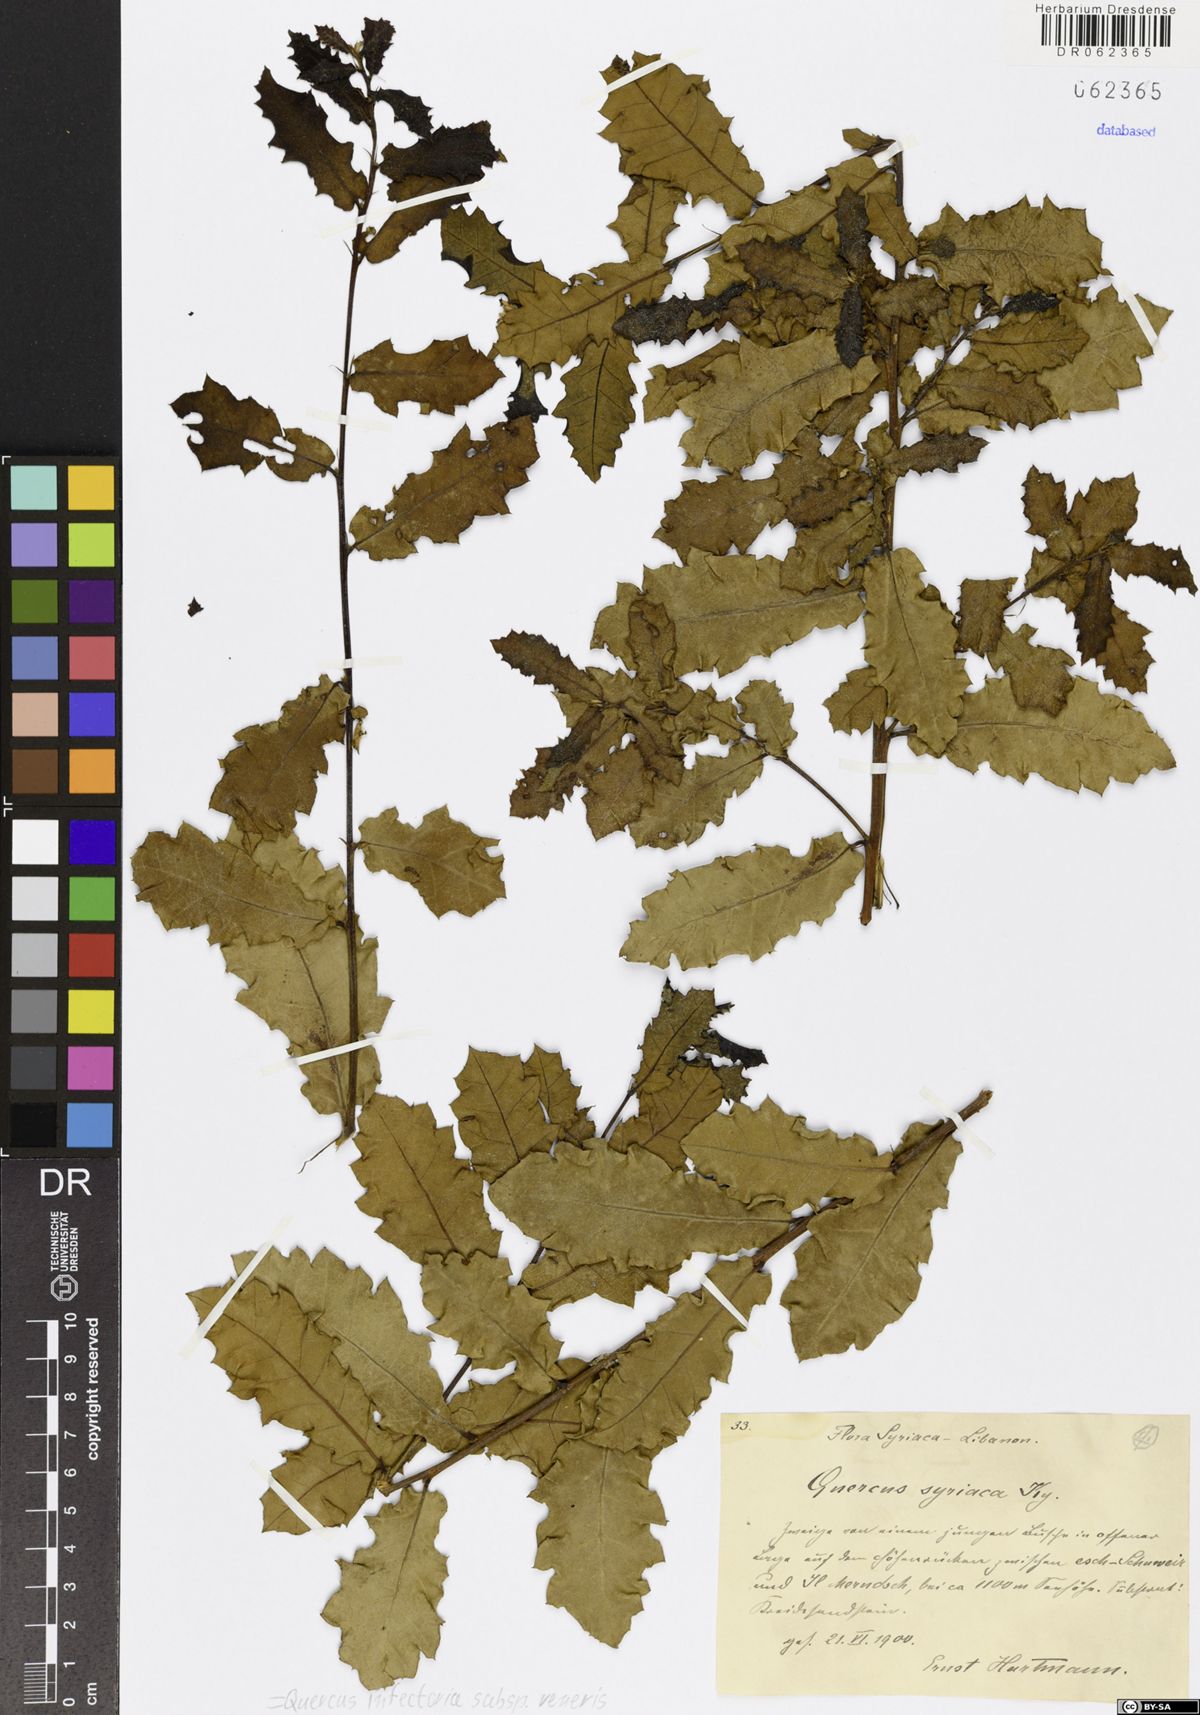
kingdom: Plantae
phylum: Tracheophyta
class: Magnoliopsida
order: Fagales
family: Fagaceae
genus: Quercus
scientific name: Quercus infectoria
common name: Aleppo oak
